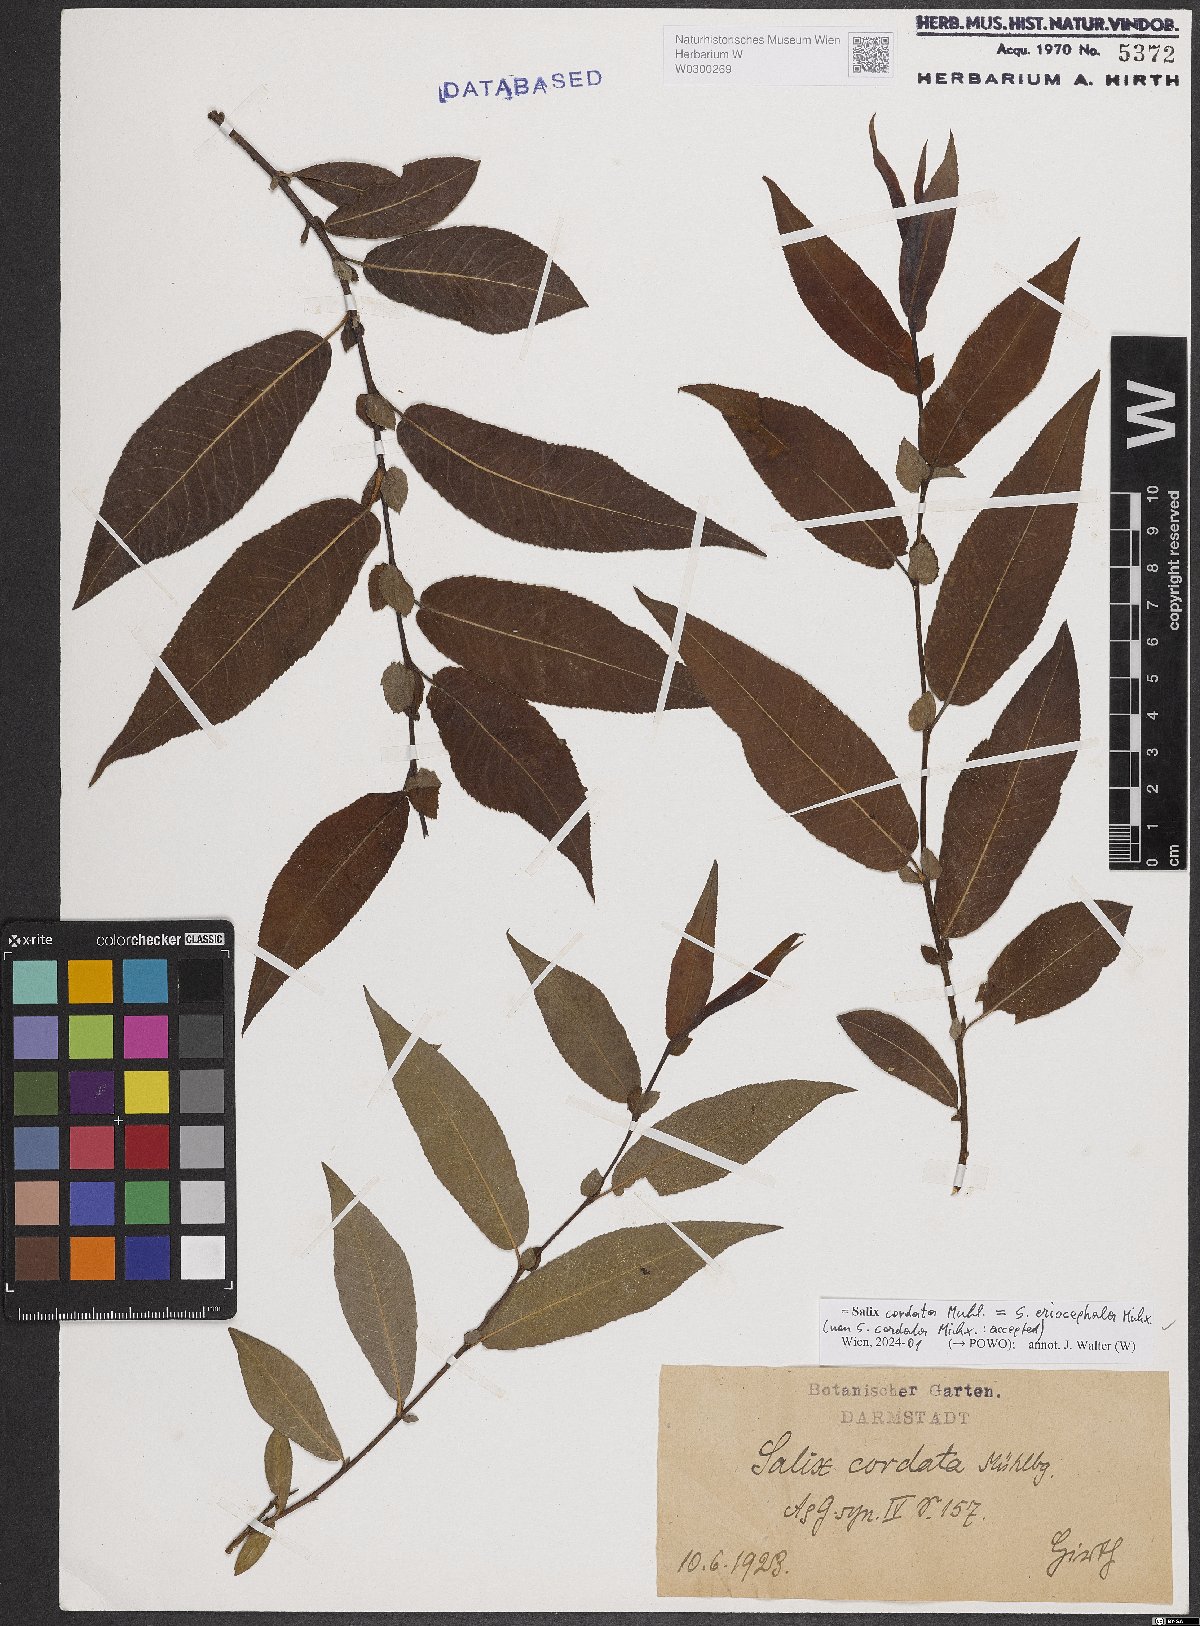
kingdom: Plantae
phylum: Tracheophyta
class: Magnoliopsida
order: Malpighiales
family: Salicaceae
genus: Salix
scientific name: Salix eriocephala
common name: Heart-leaved willow
